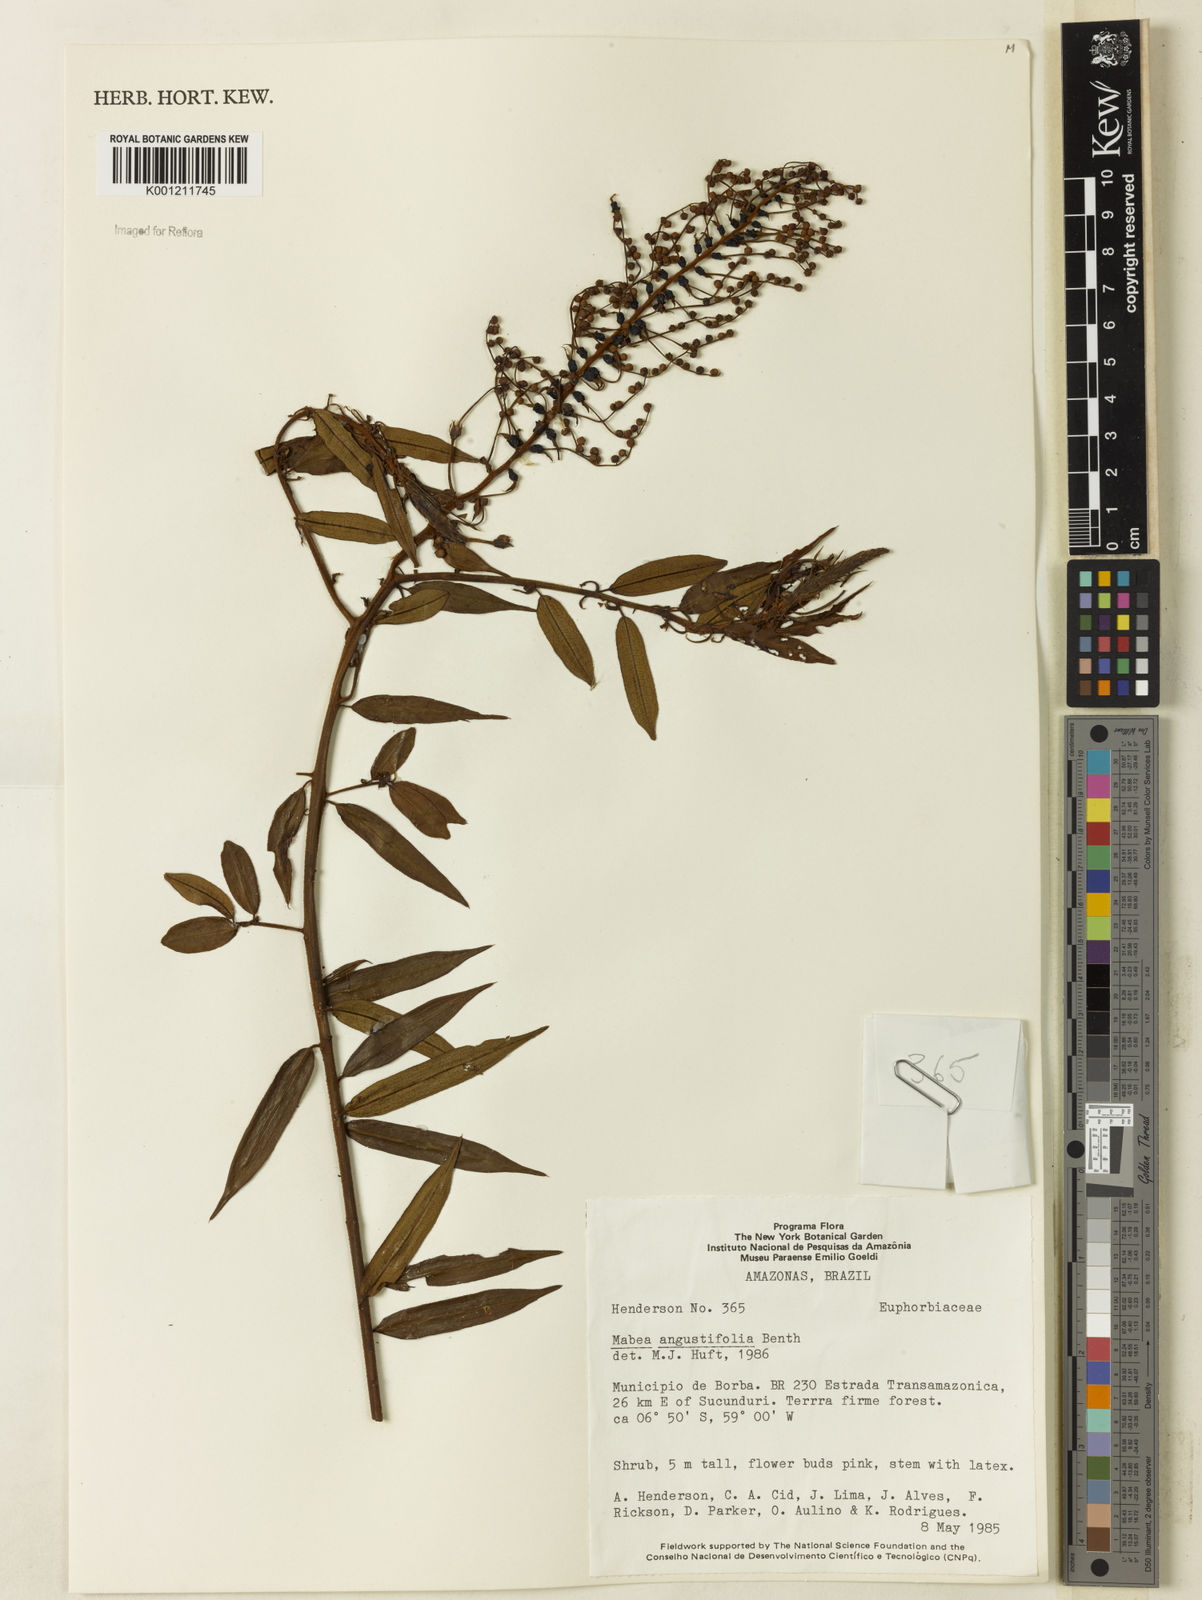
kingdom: Plantae
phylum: Tracheophyta
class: Magnoliopsida
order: Malpighiales
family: Euphorbiaceae
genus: Mabea
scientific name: Mabea angustifolia
